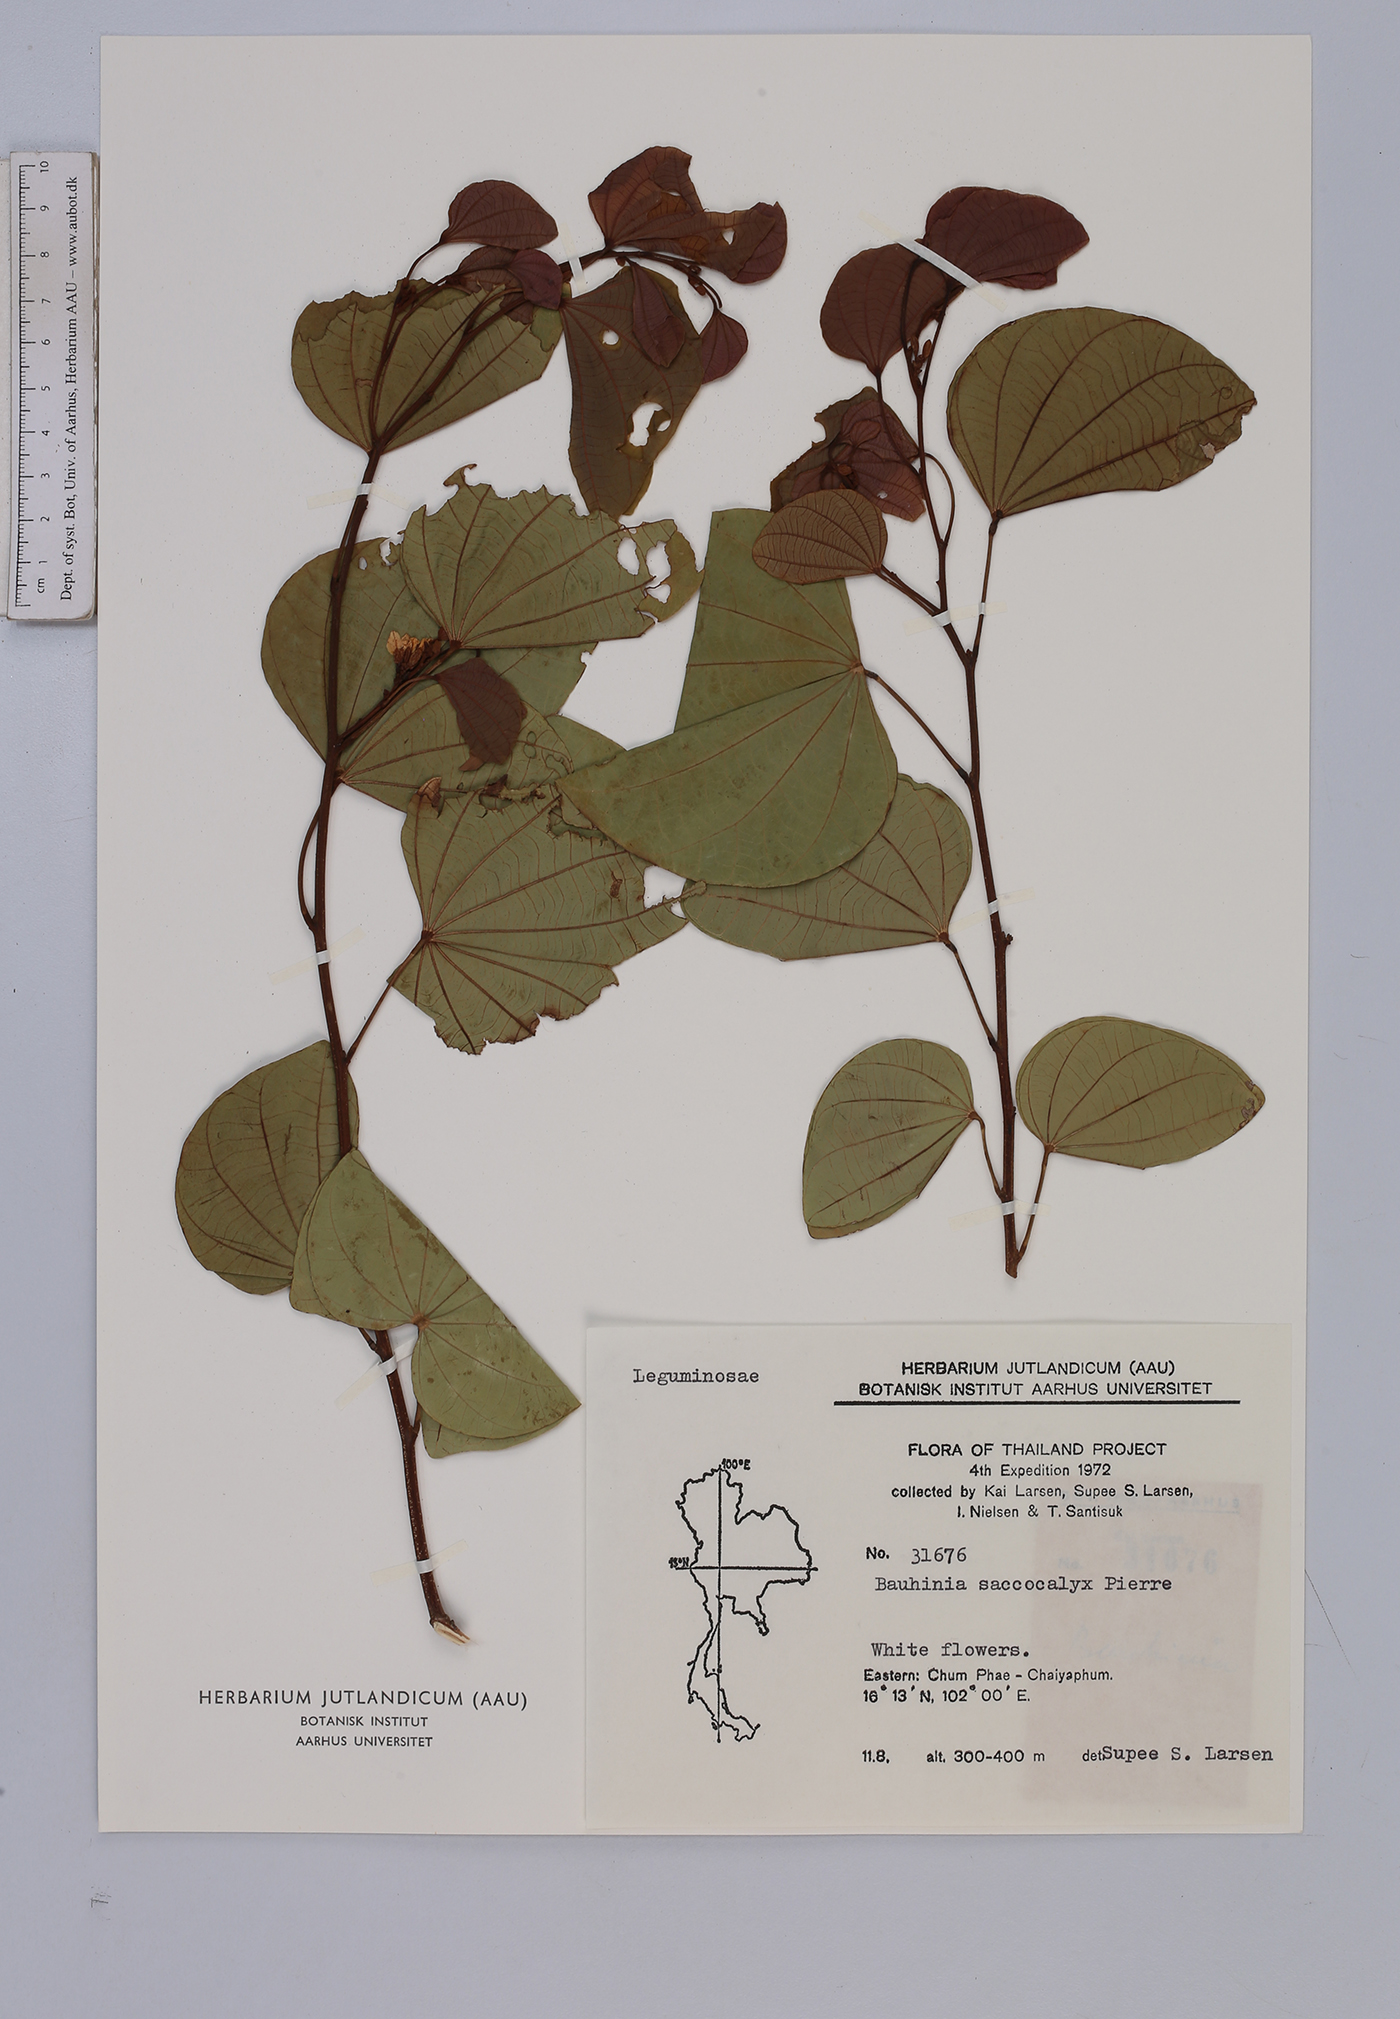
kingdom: Plantae
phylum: Tracheophyta
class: Magnoliopsida
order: Fabales
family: Fabaceae
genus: Bauhinia
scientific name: Bauhinia saccocalyx
